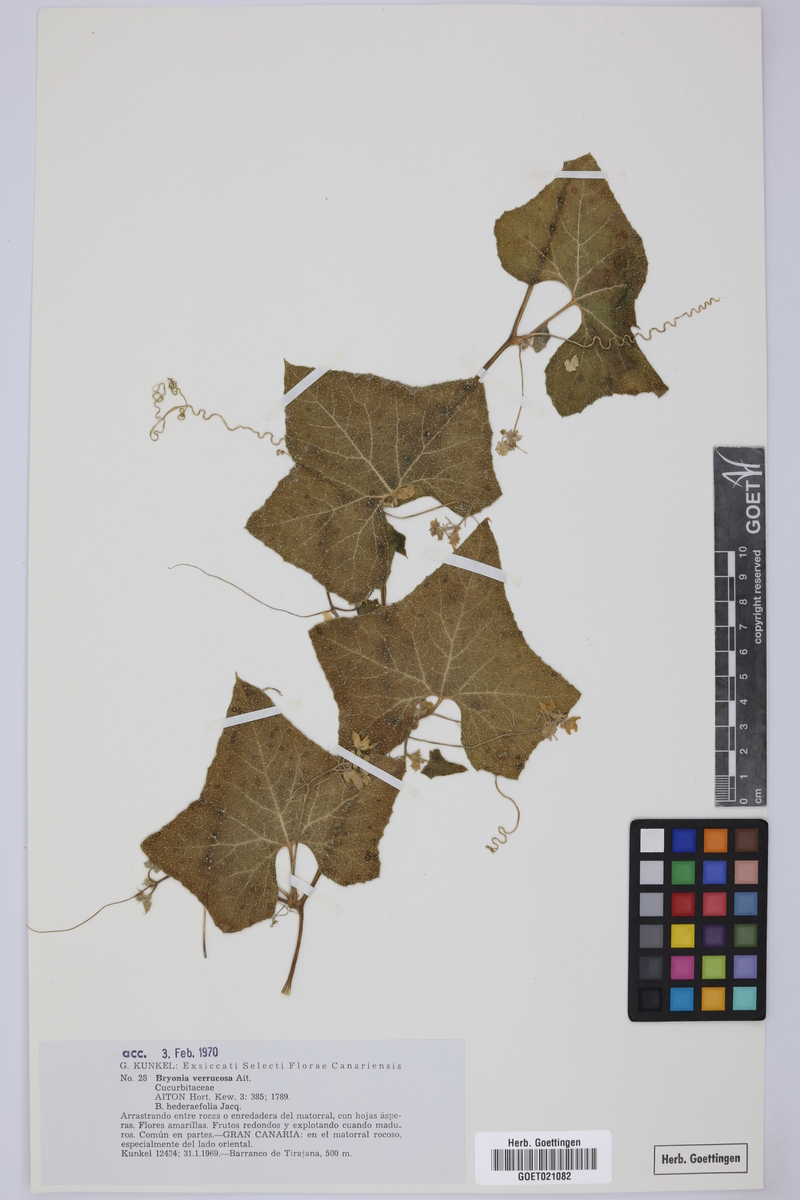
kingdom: Plantae
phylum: Tracheophyta
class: Magnoliopsida
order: Cucurbitales
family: Cucurbitaceae
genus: Bryonia
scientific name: Bryonia verrucosa
